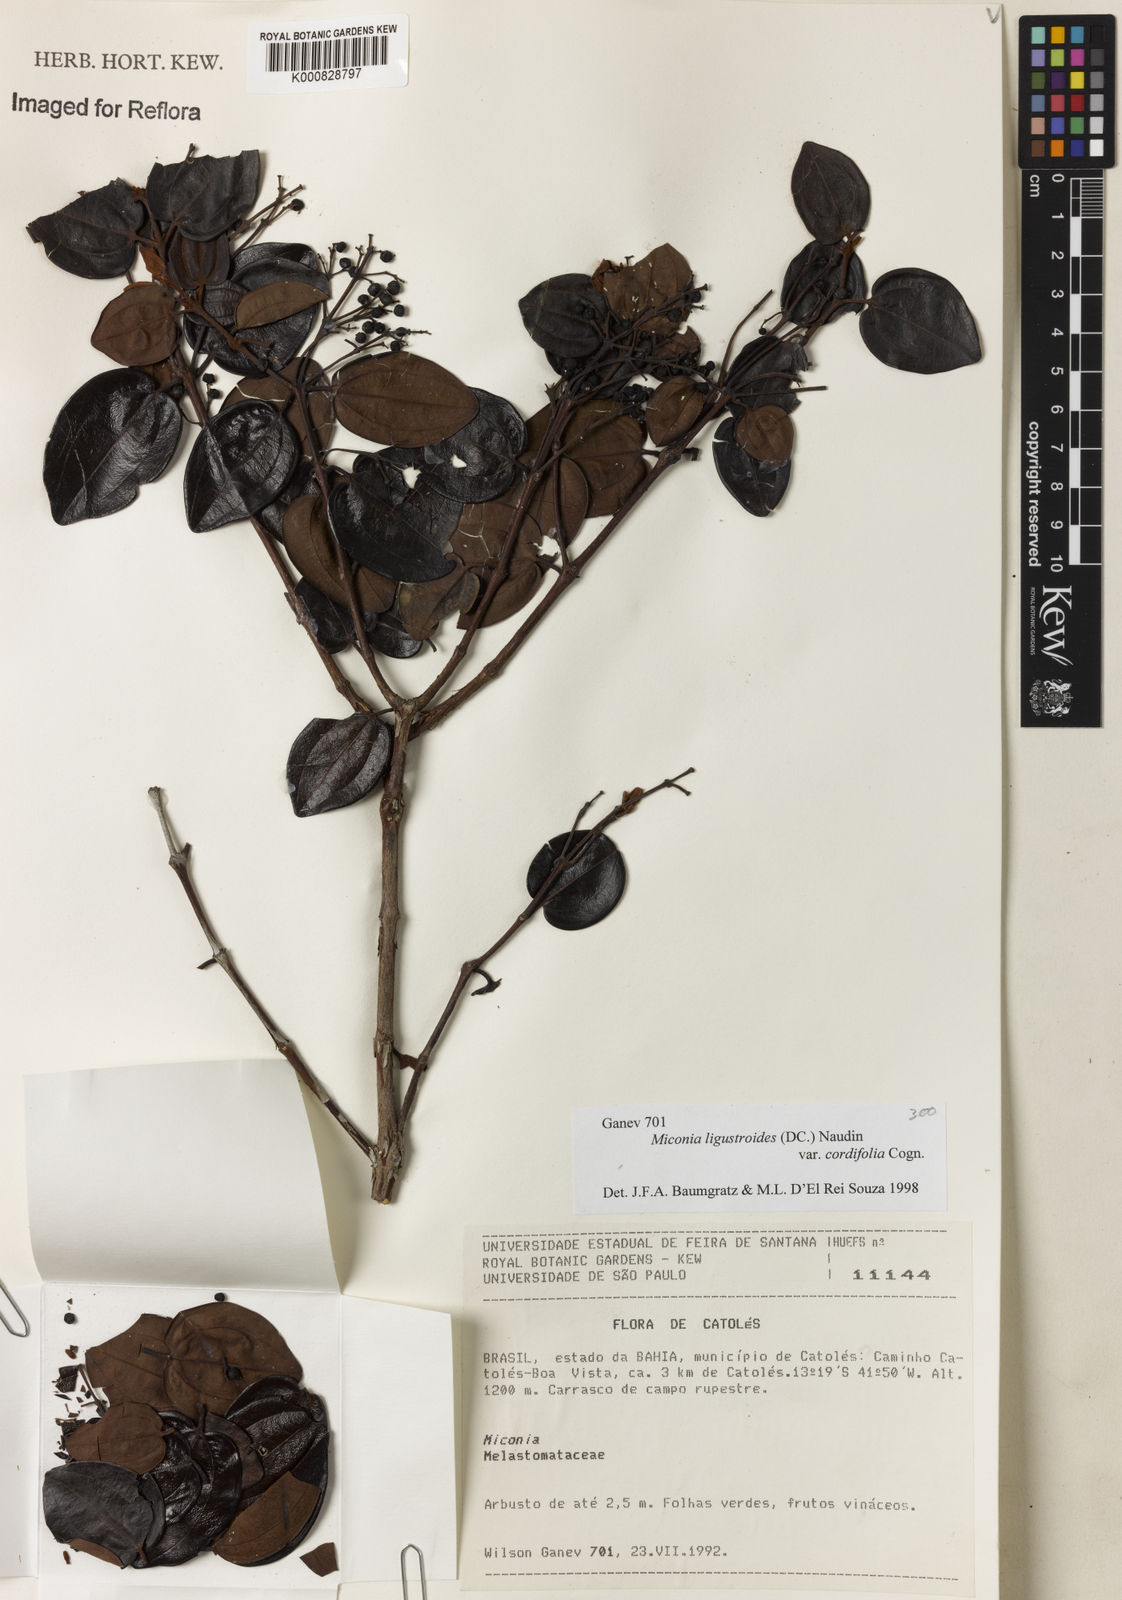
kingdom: Plantae
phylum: Tracheophyta
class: Magnoliopsida
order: Myrtales
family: Melastomataceae
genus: Miconia
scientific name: Miconia ligustroides
